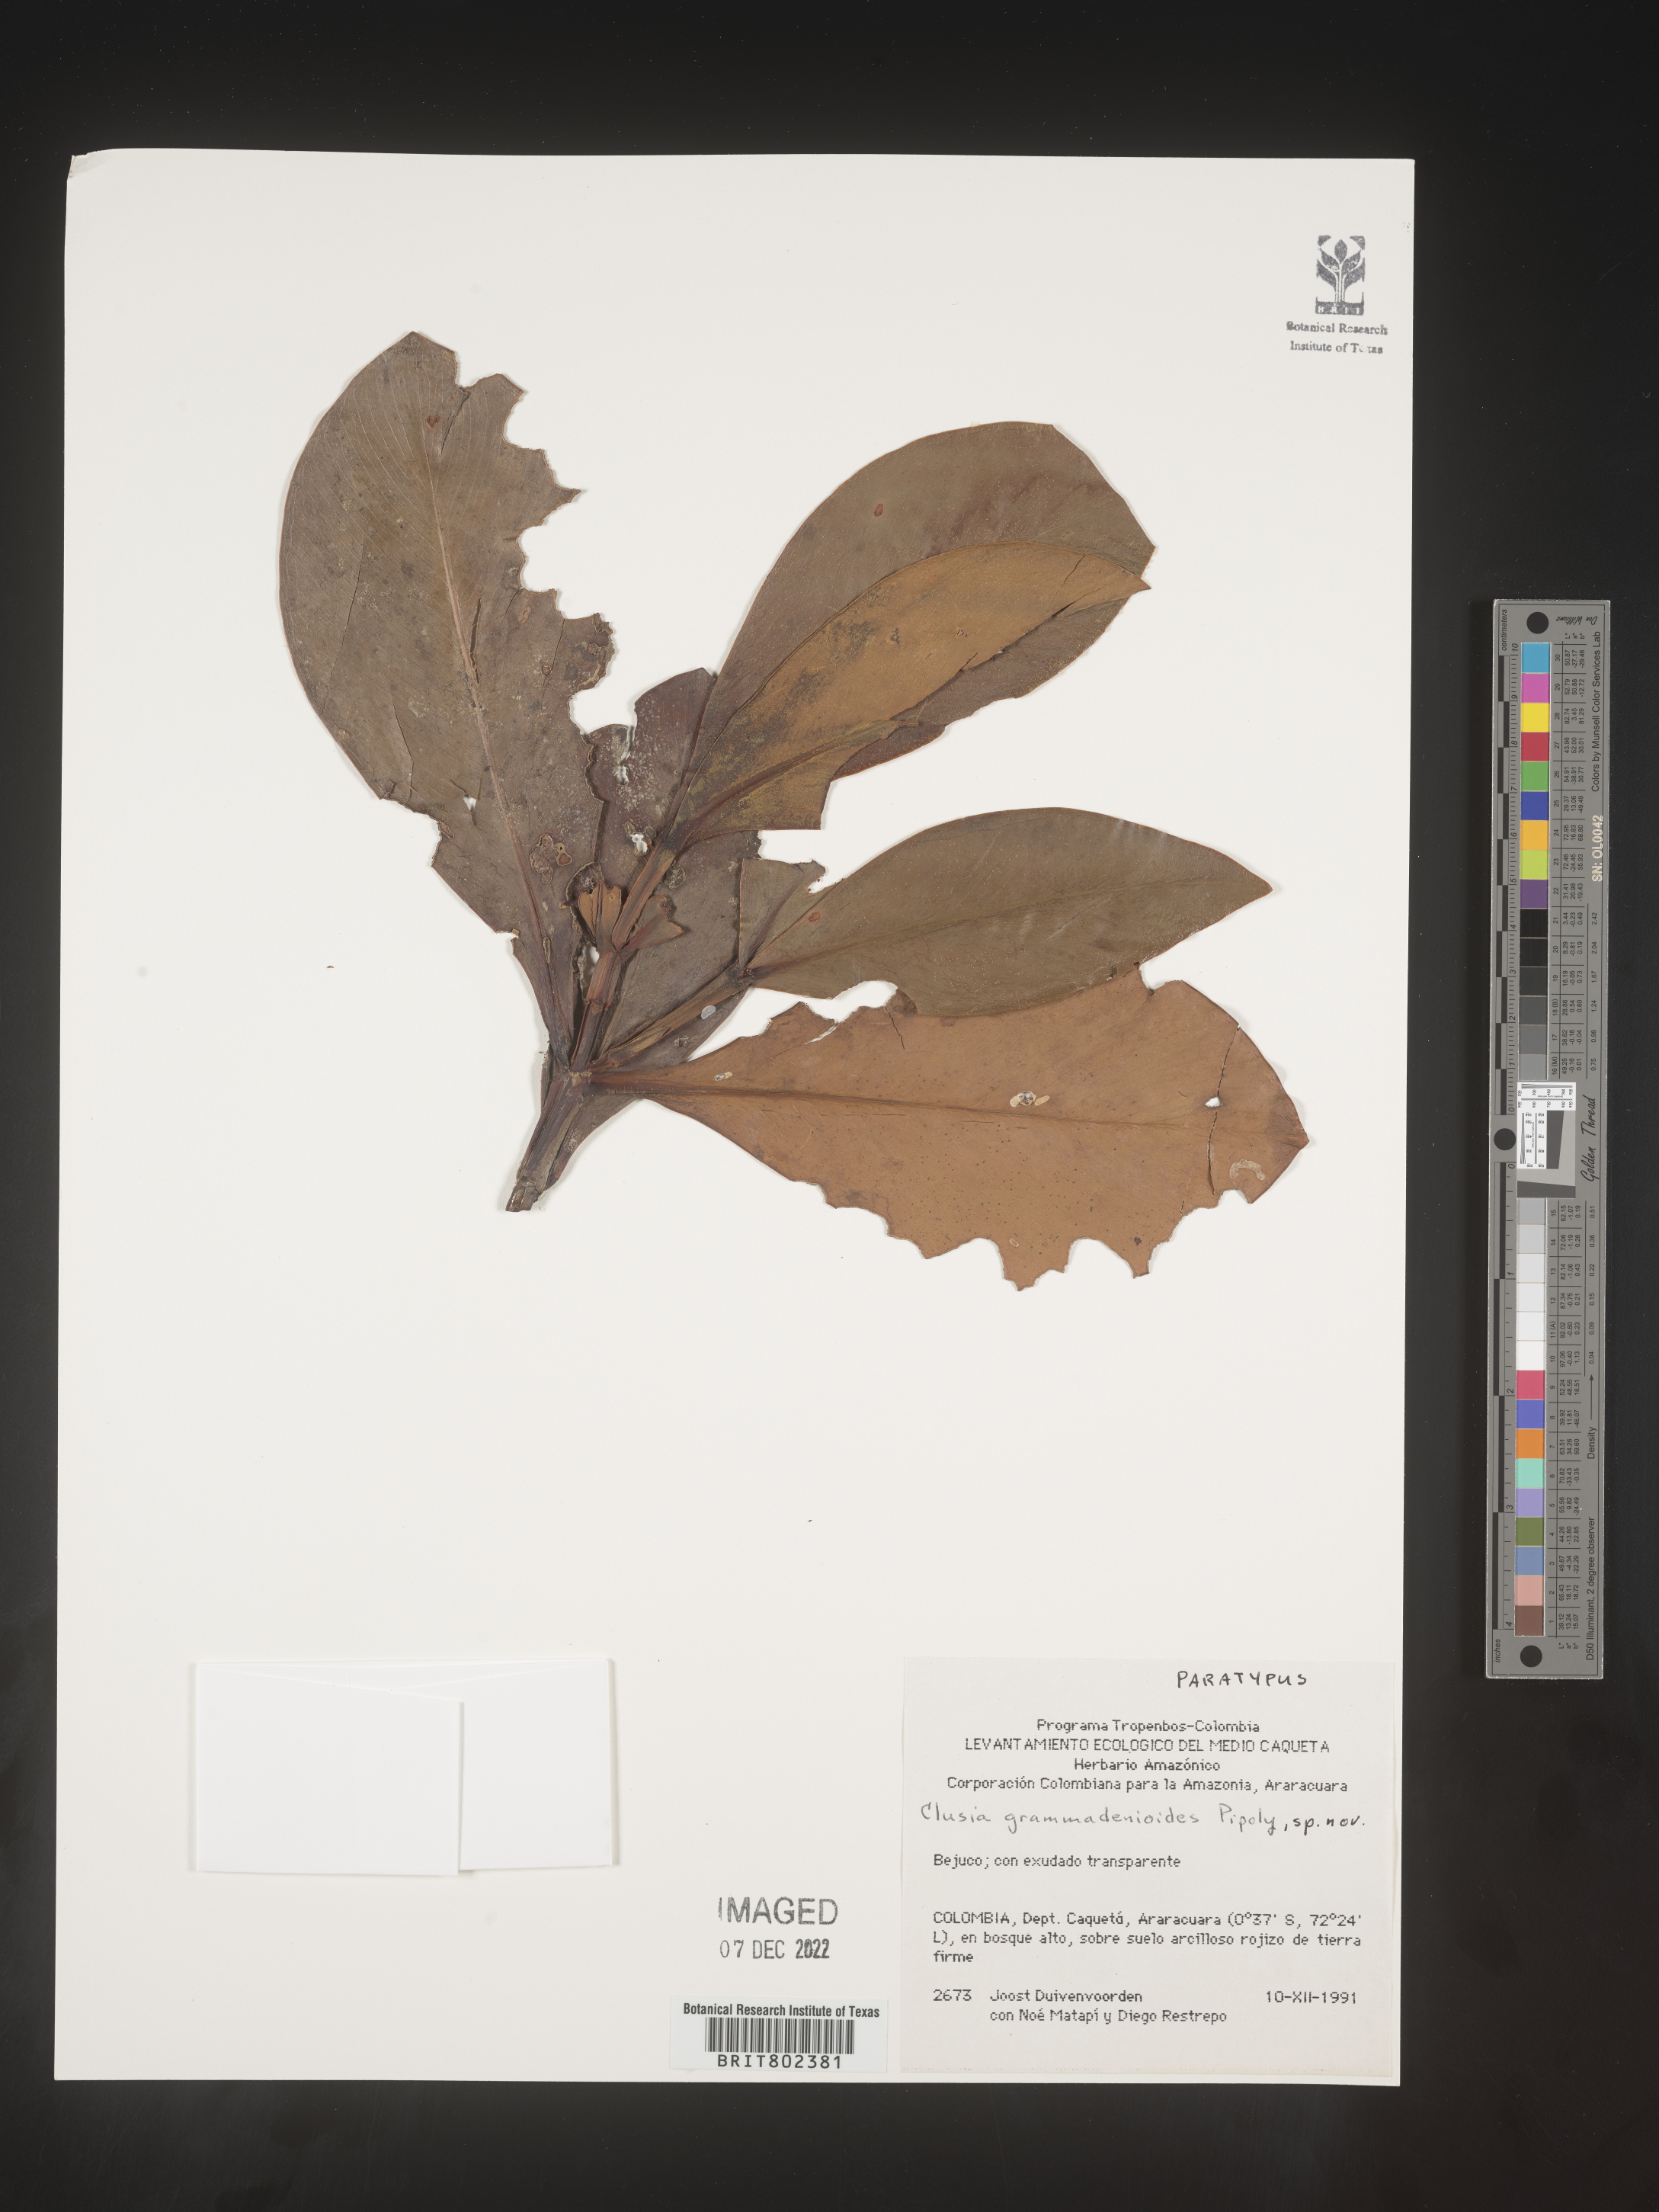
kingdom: Plantae
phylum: Tracheophyta
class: Magnoliopsida
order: Malpighiales
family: Clusiaceae
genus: Clusia
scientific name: Clusia
